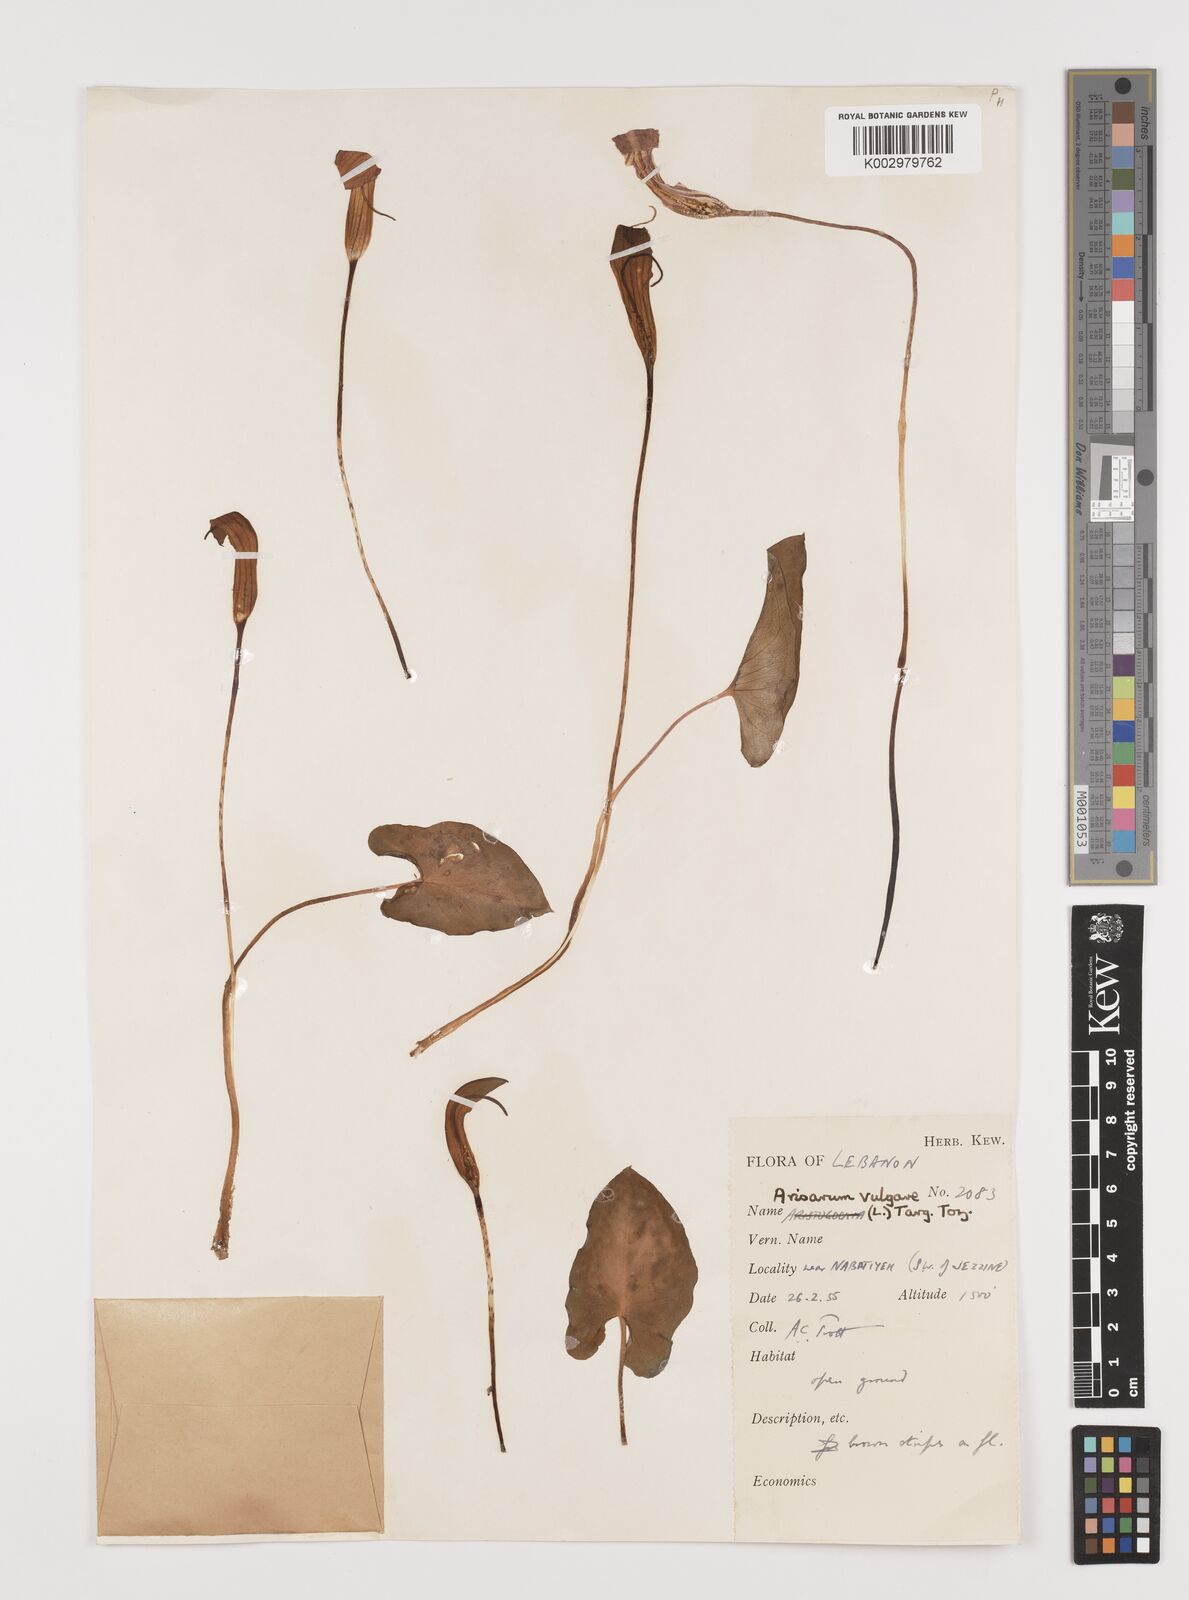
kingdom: Plantae
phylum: Tracheophyta
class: Liliopsida
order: Alismatales
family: Araceae
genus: Arisarum
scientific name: Arisarum vulgare
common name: Common arisarum
